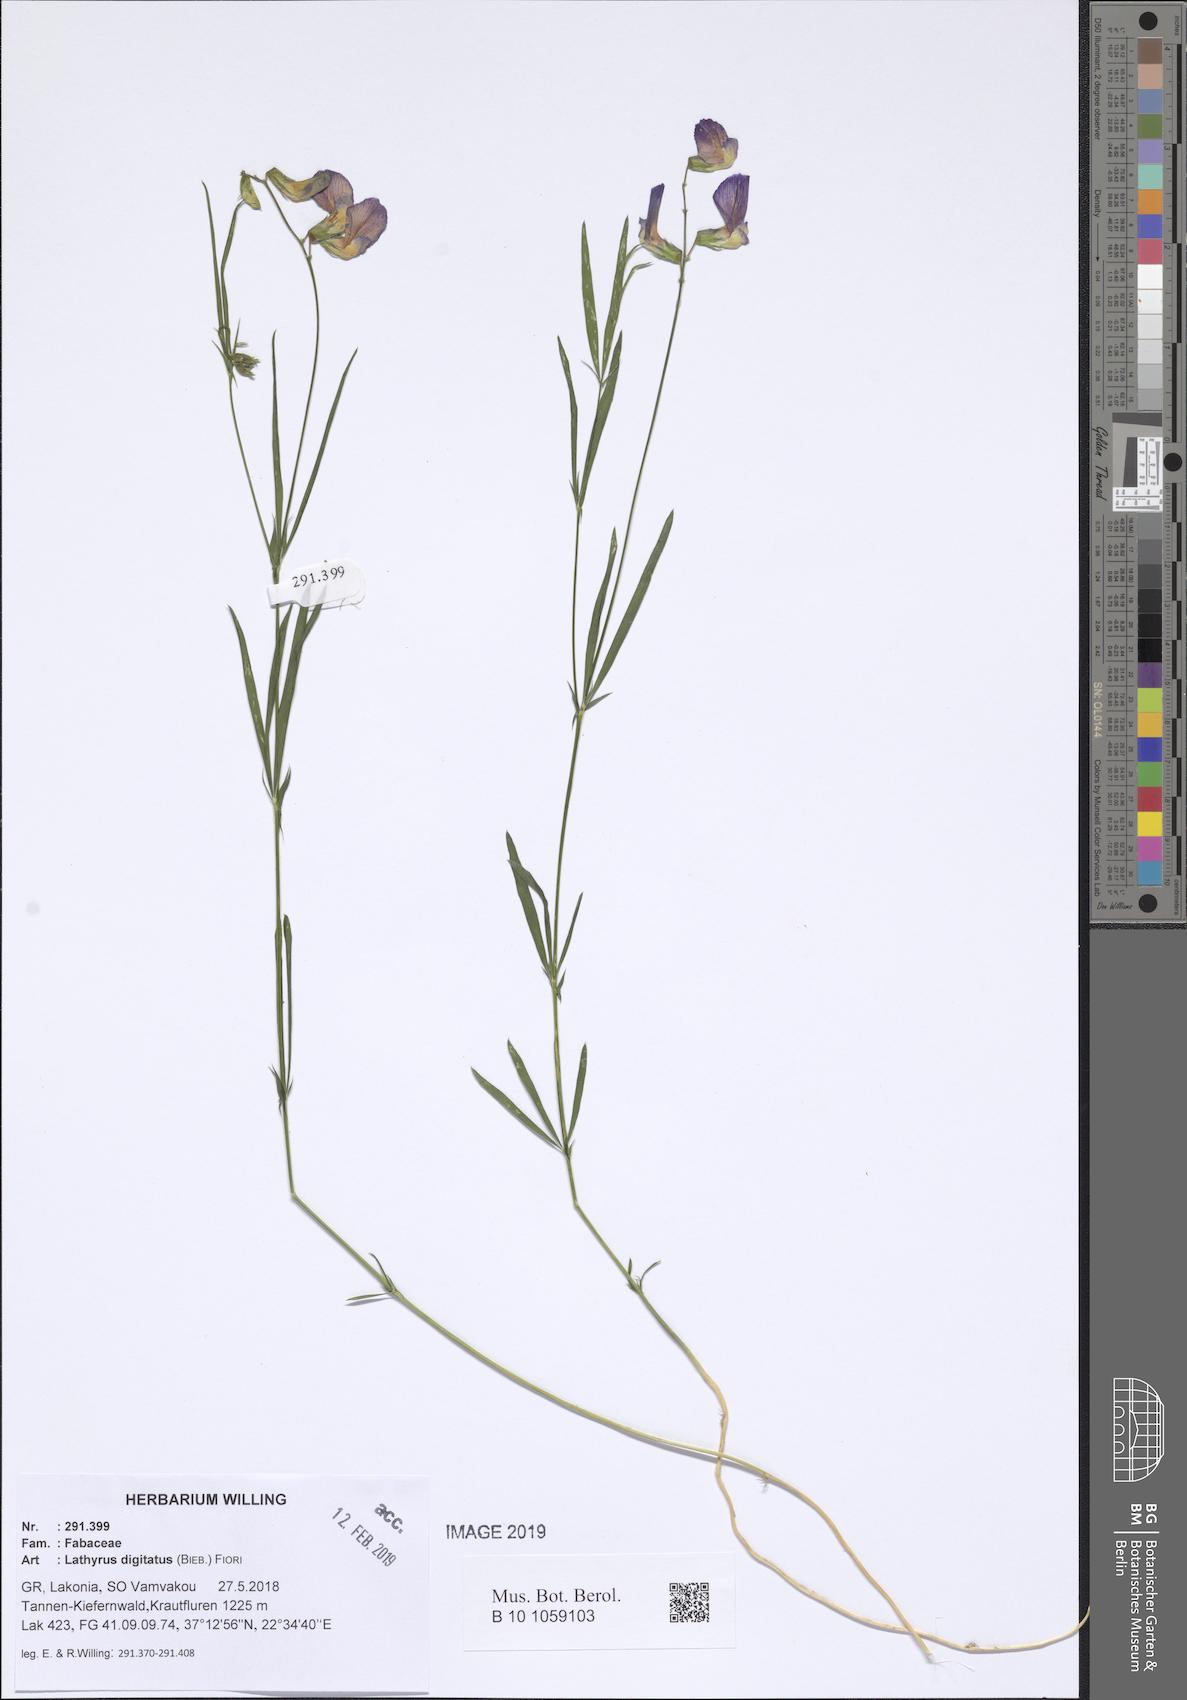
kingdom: Plantae
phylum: Tracheophyta
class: Magnoliopsida
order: Fabales
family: Fabaceae
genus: Lathyrus
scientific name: Lathyrus digitatus
